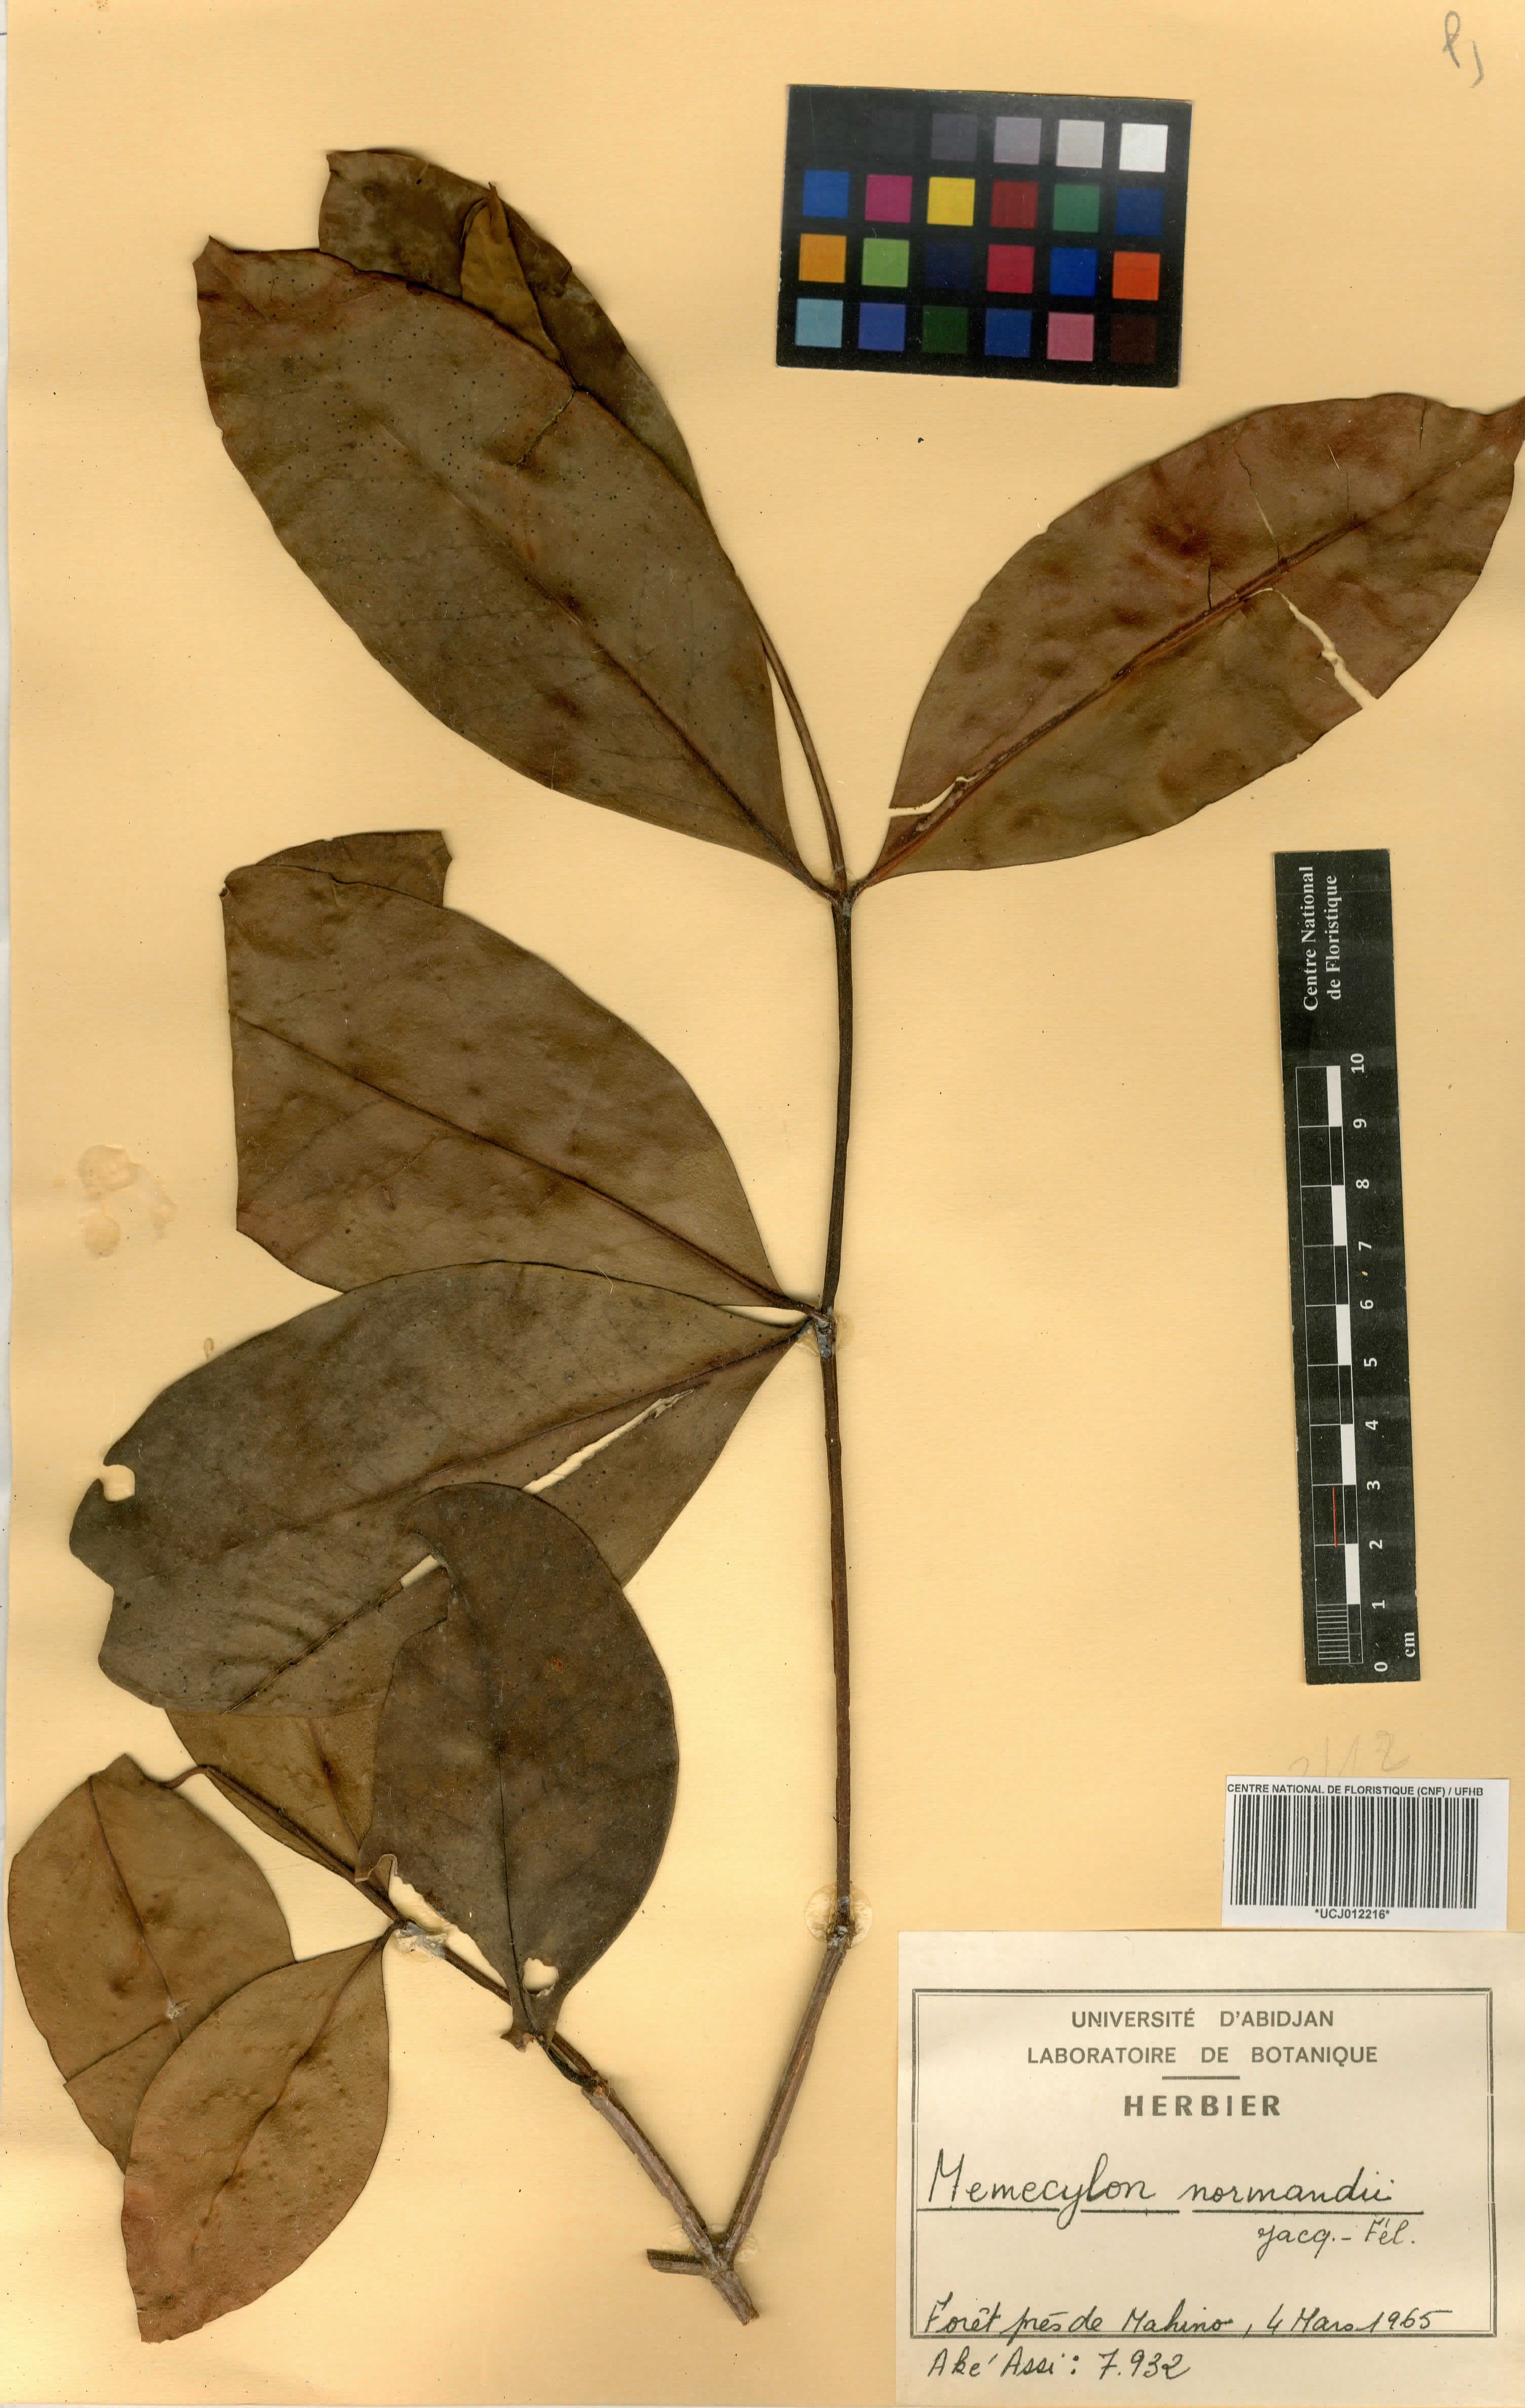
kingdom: Plantae
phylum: Tracheophyta
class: Magnoliopsida
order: Myrtales
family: Melastomataceae
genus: Memecylon
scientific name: Memecylon normandii
